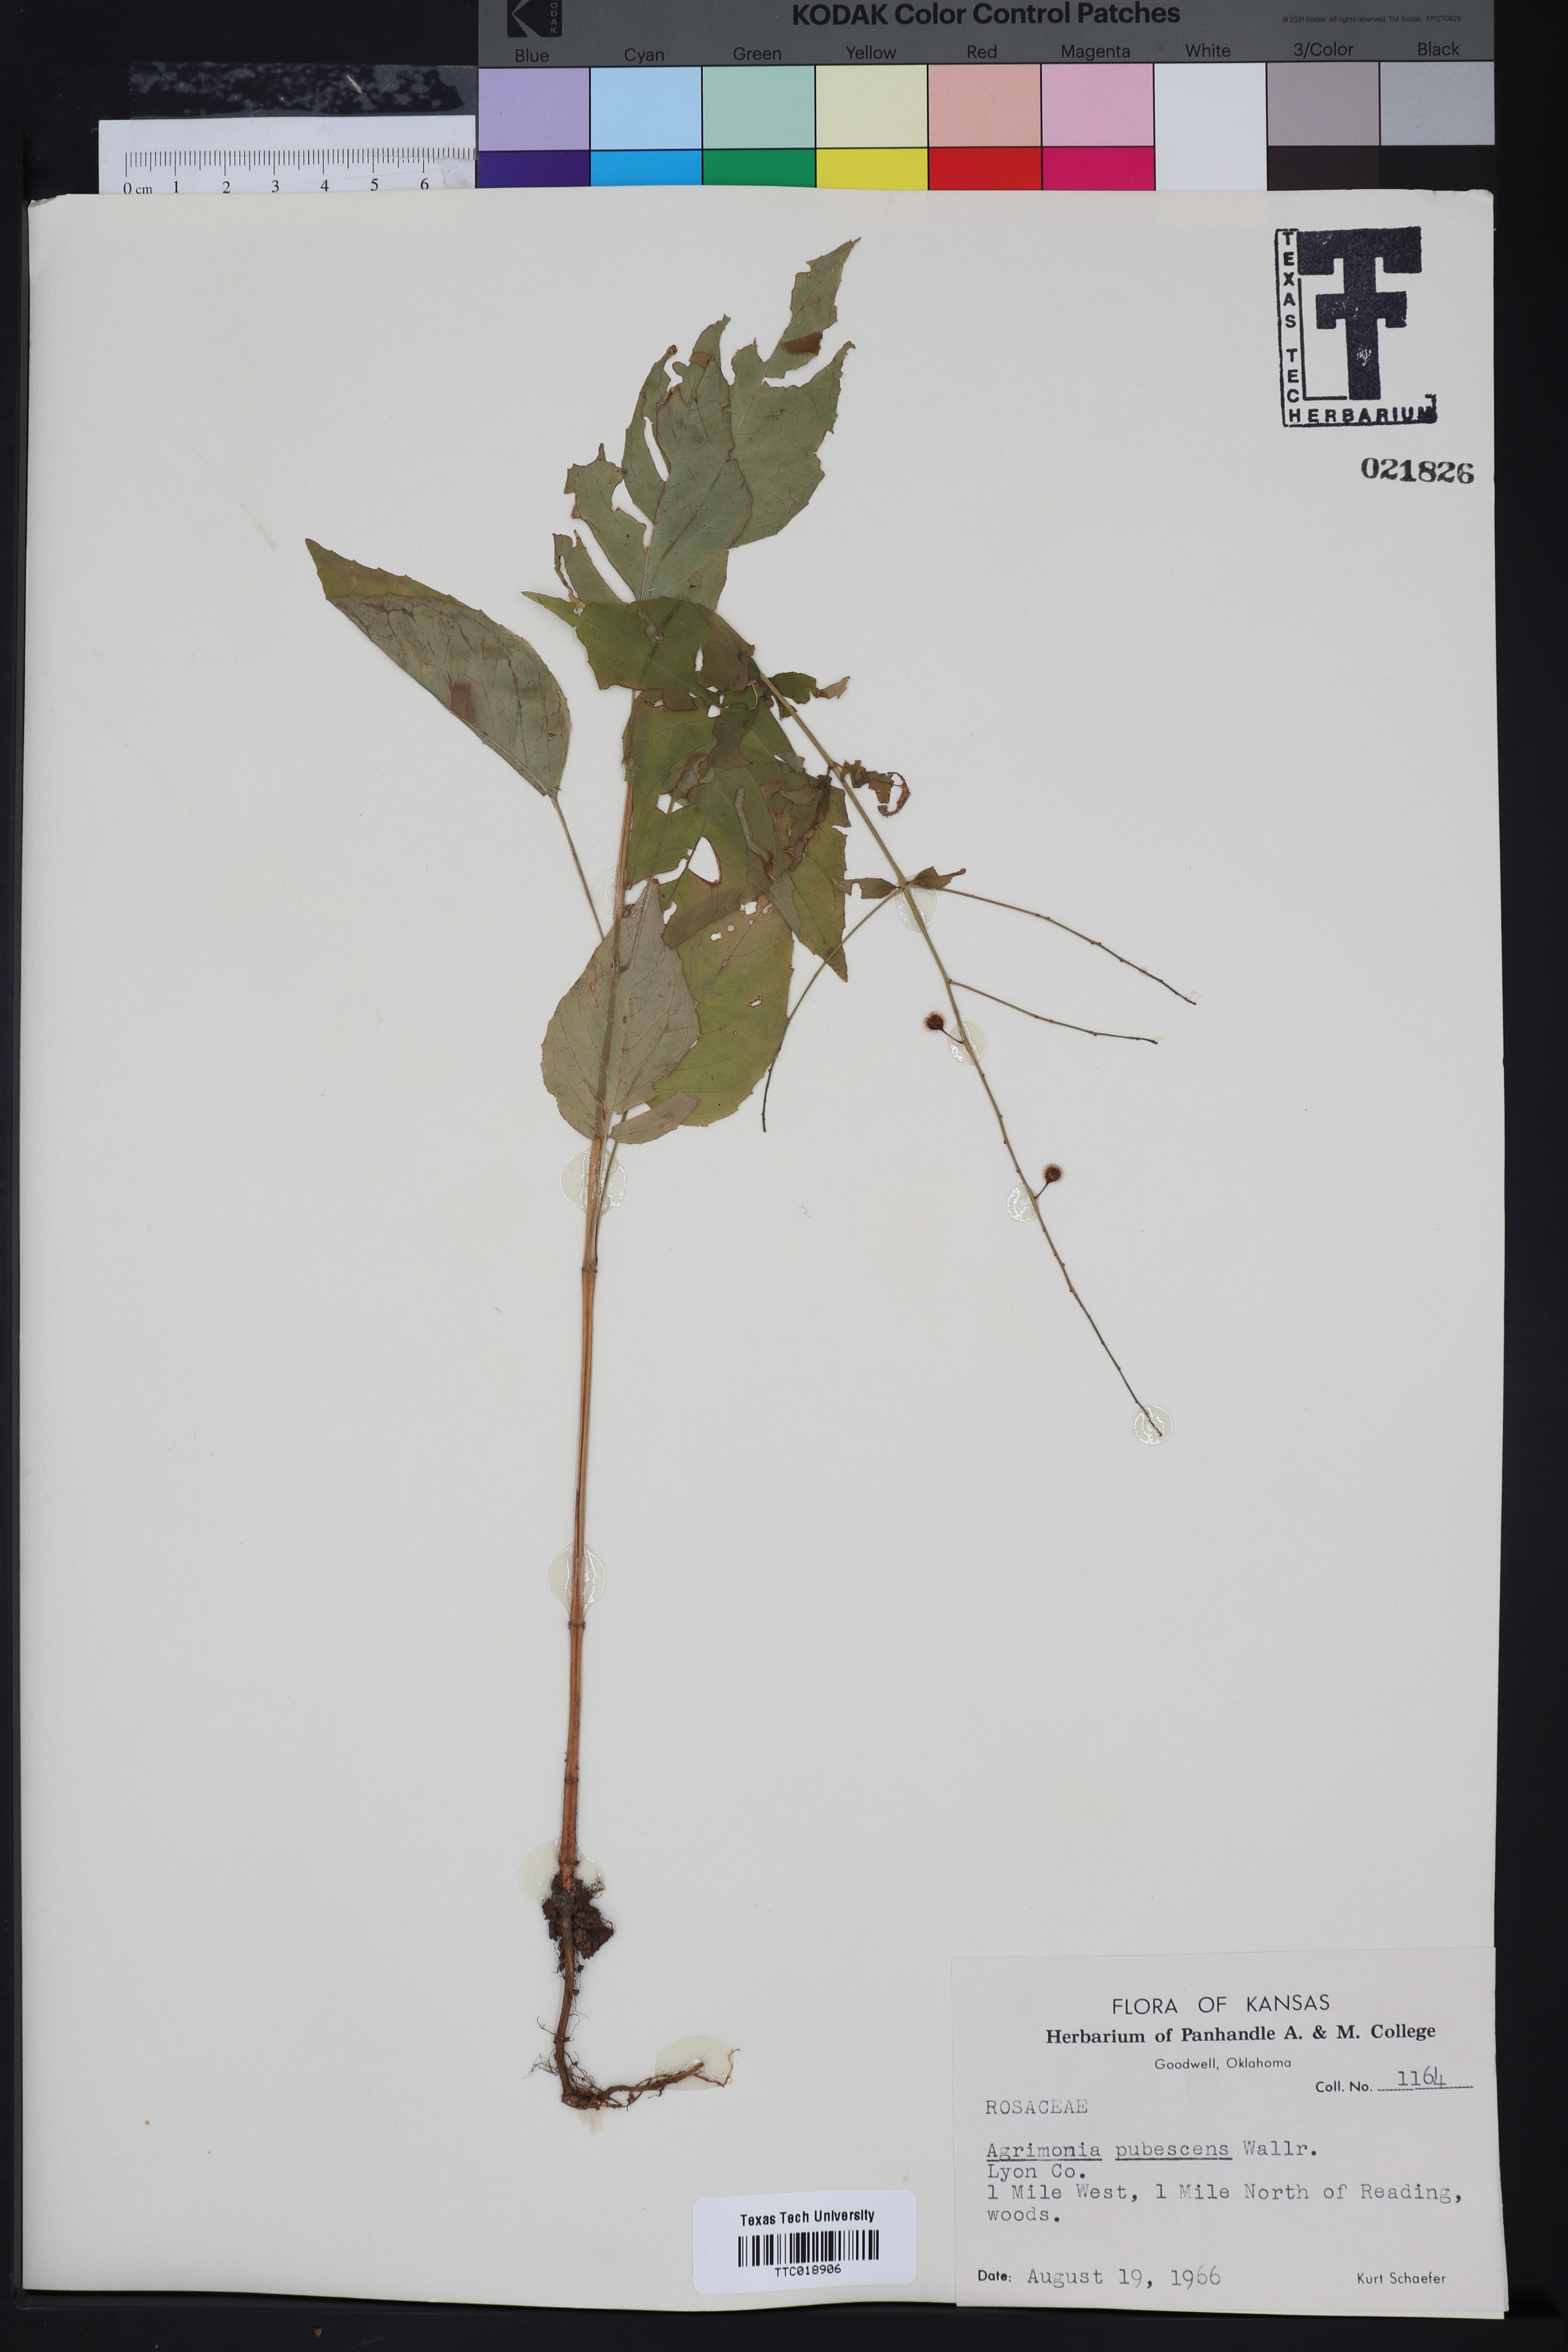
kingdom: Plantae
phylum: Tracheophyta
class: Magnoliopsida
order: Rosales
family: Rosaceae
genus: Agrimonia
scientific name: Agrimonia pubescens
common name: Downy agrimony
